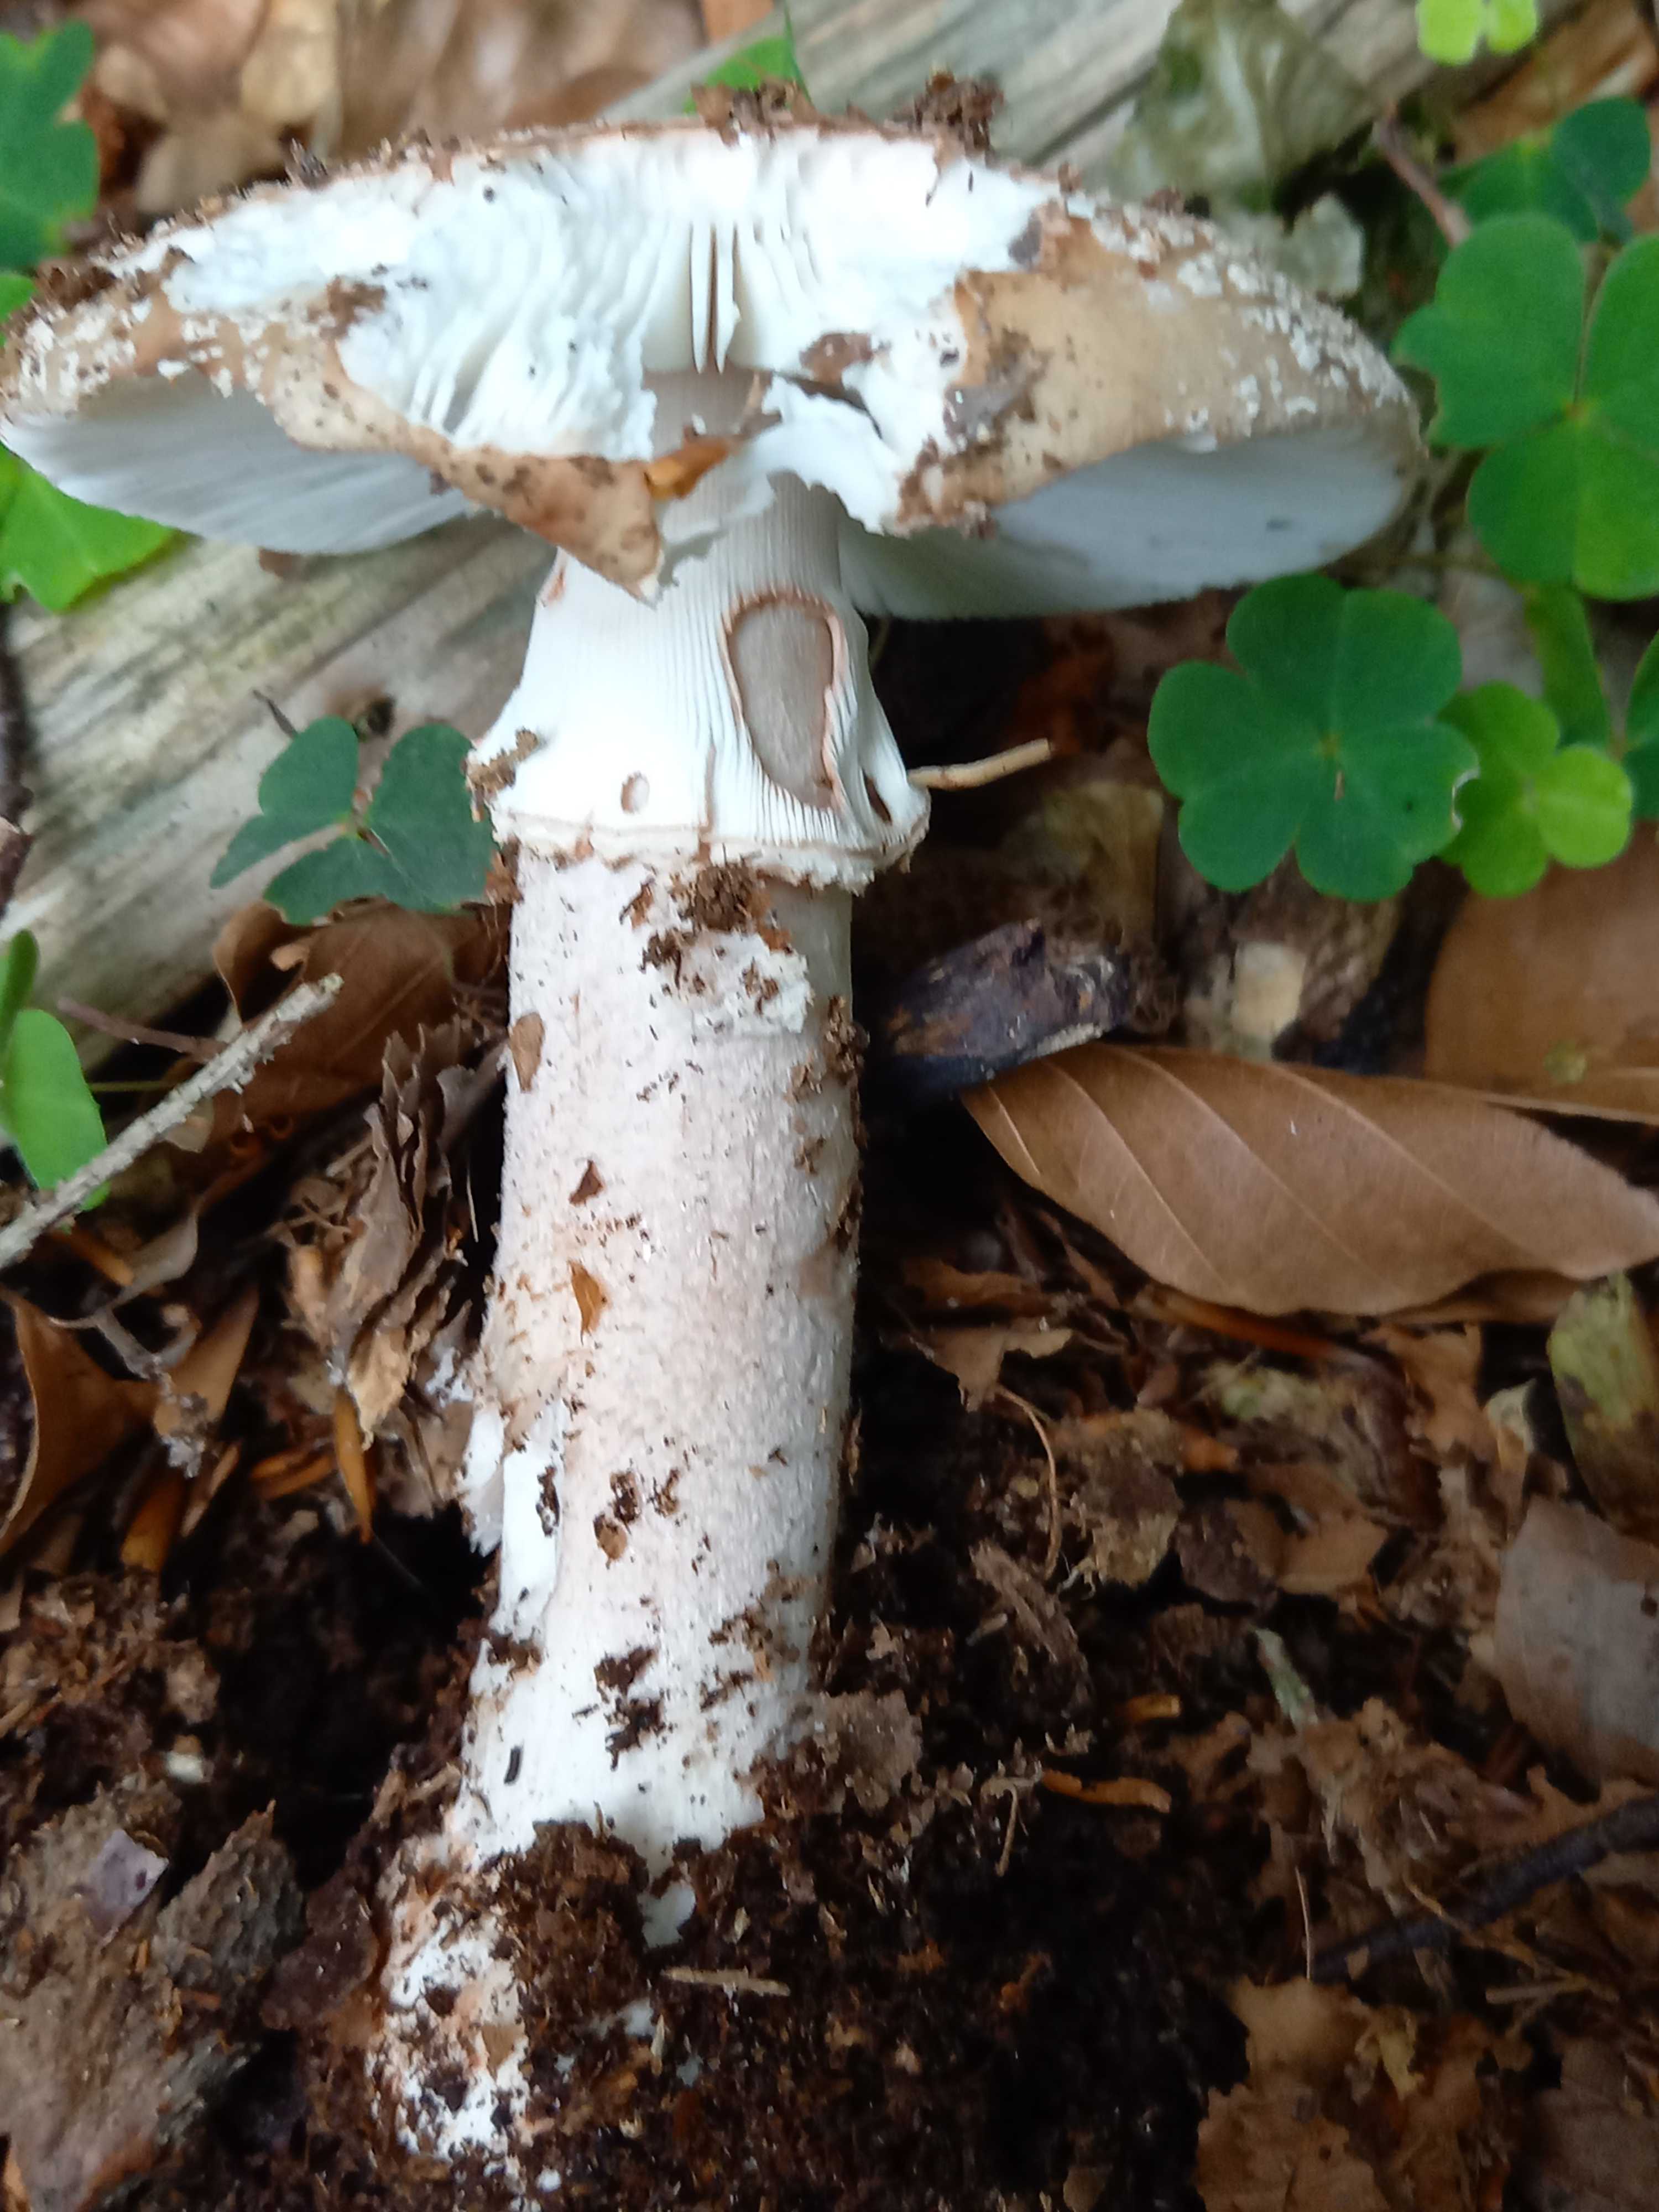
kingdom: Fungi
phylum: Basidiomycota
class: Agaricomycetes
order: Agaricales
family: Amanitaceae
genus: Amanita
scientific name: Amanita rubescens
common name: rødmende fluesvamp
